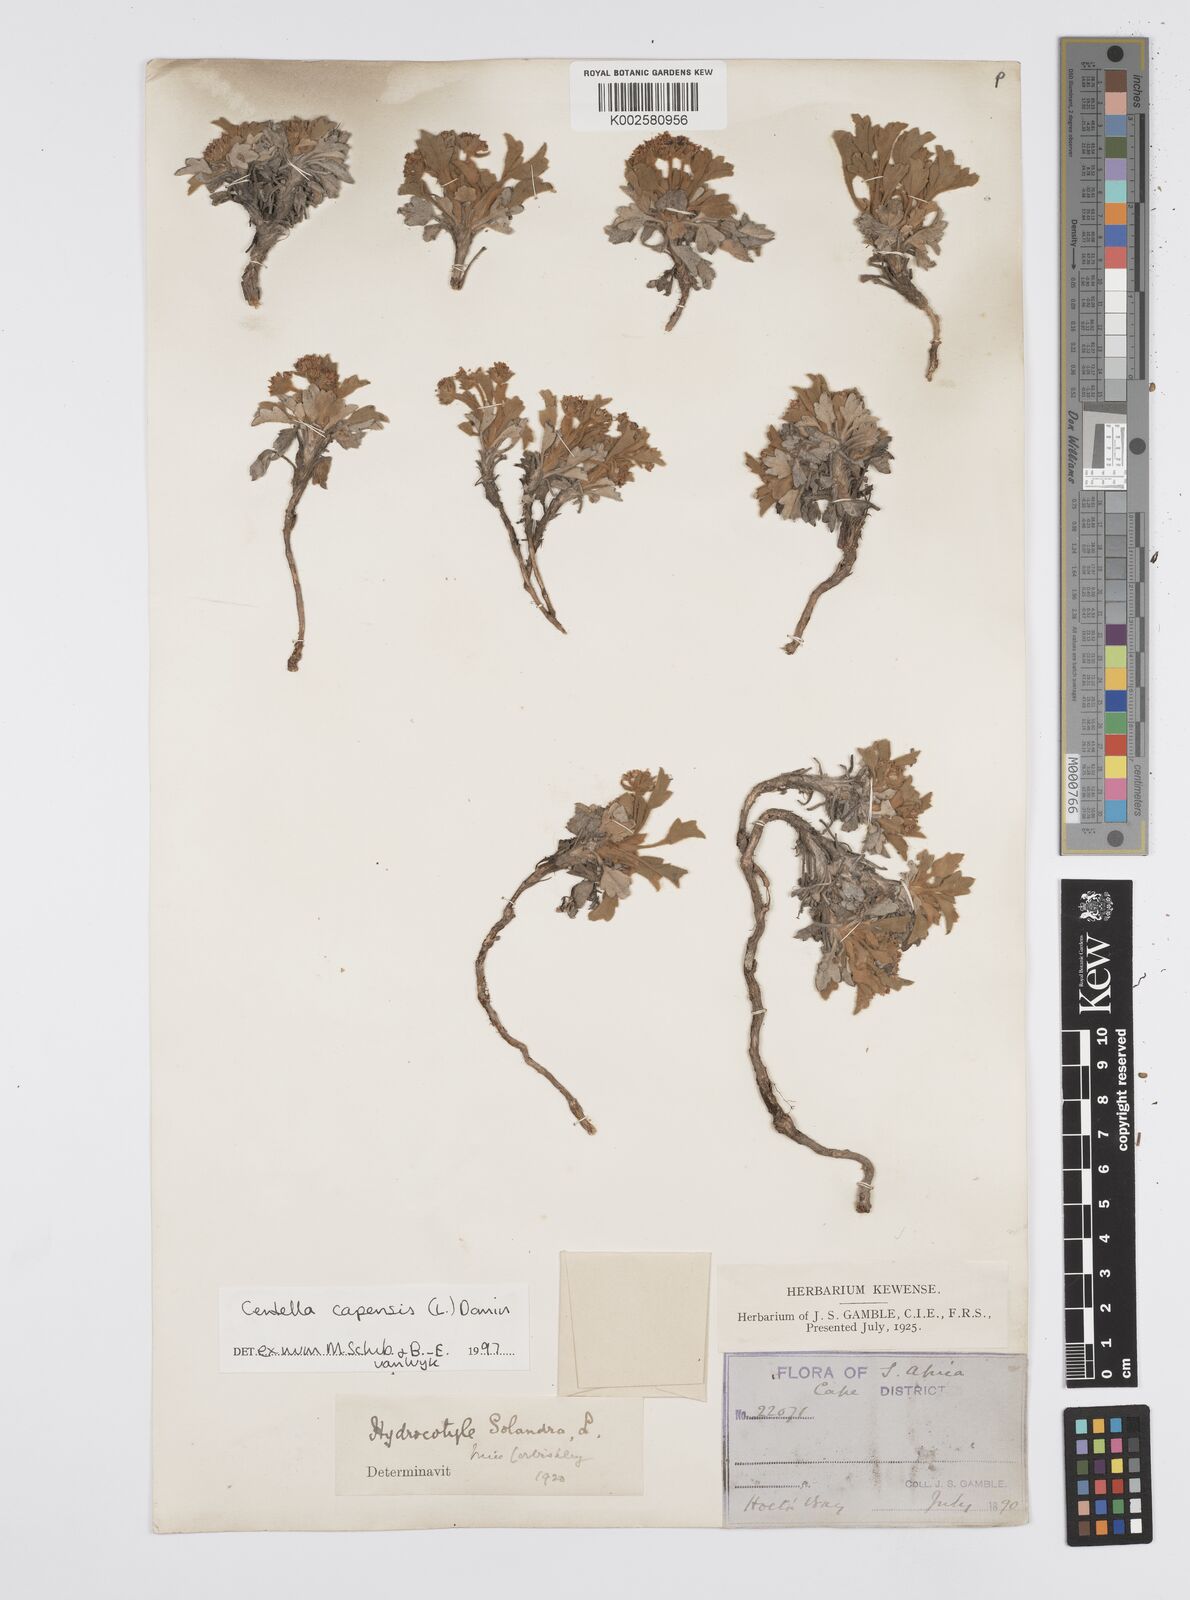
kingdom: Plantae
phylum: Tracheophyta
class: Magnoliopsida
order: Apiales
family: Apiaceae
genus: Centella
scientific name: Centella capensis
